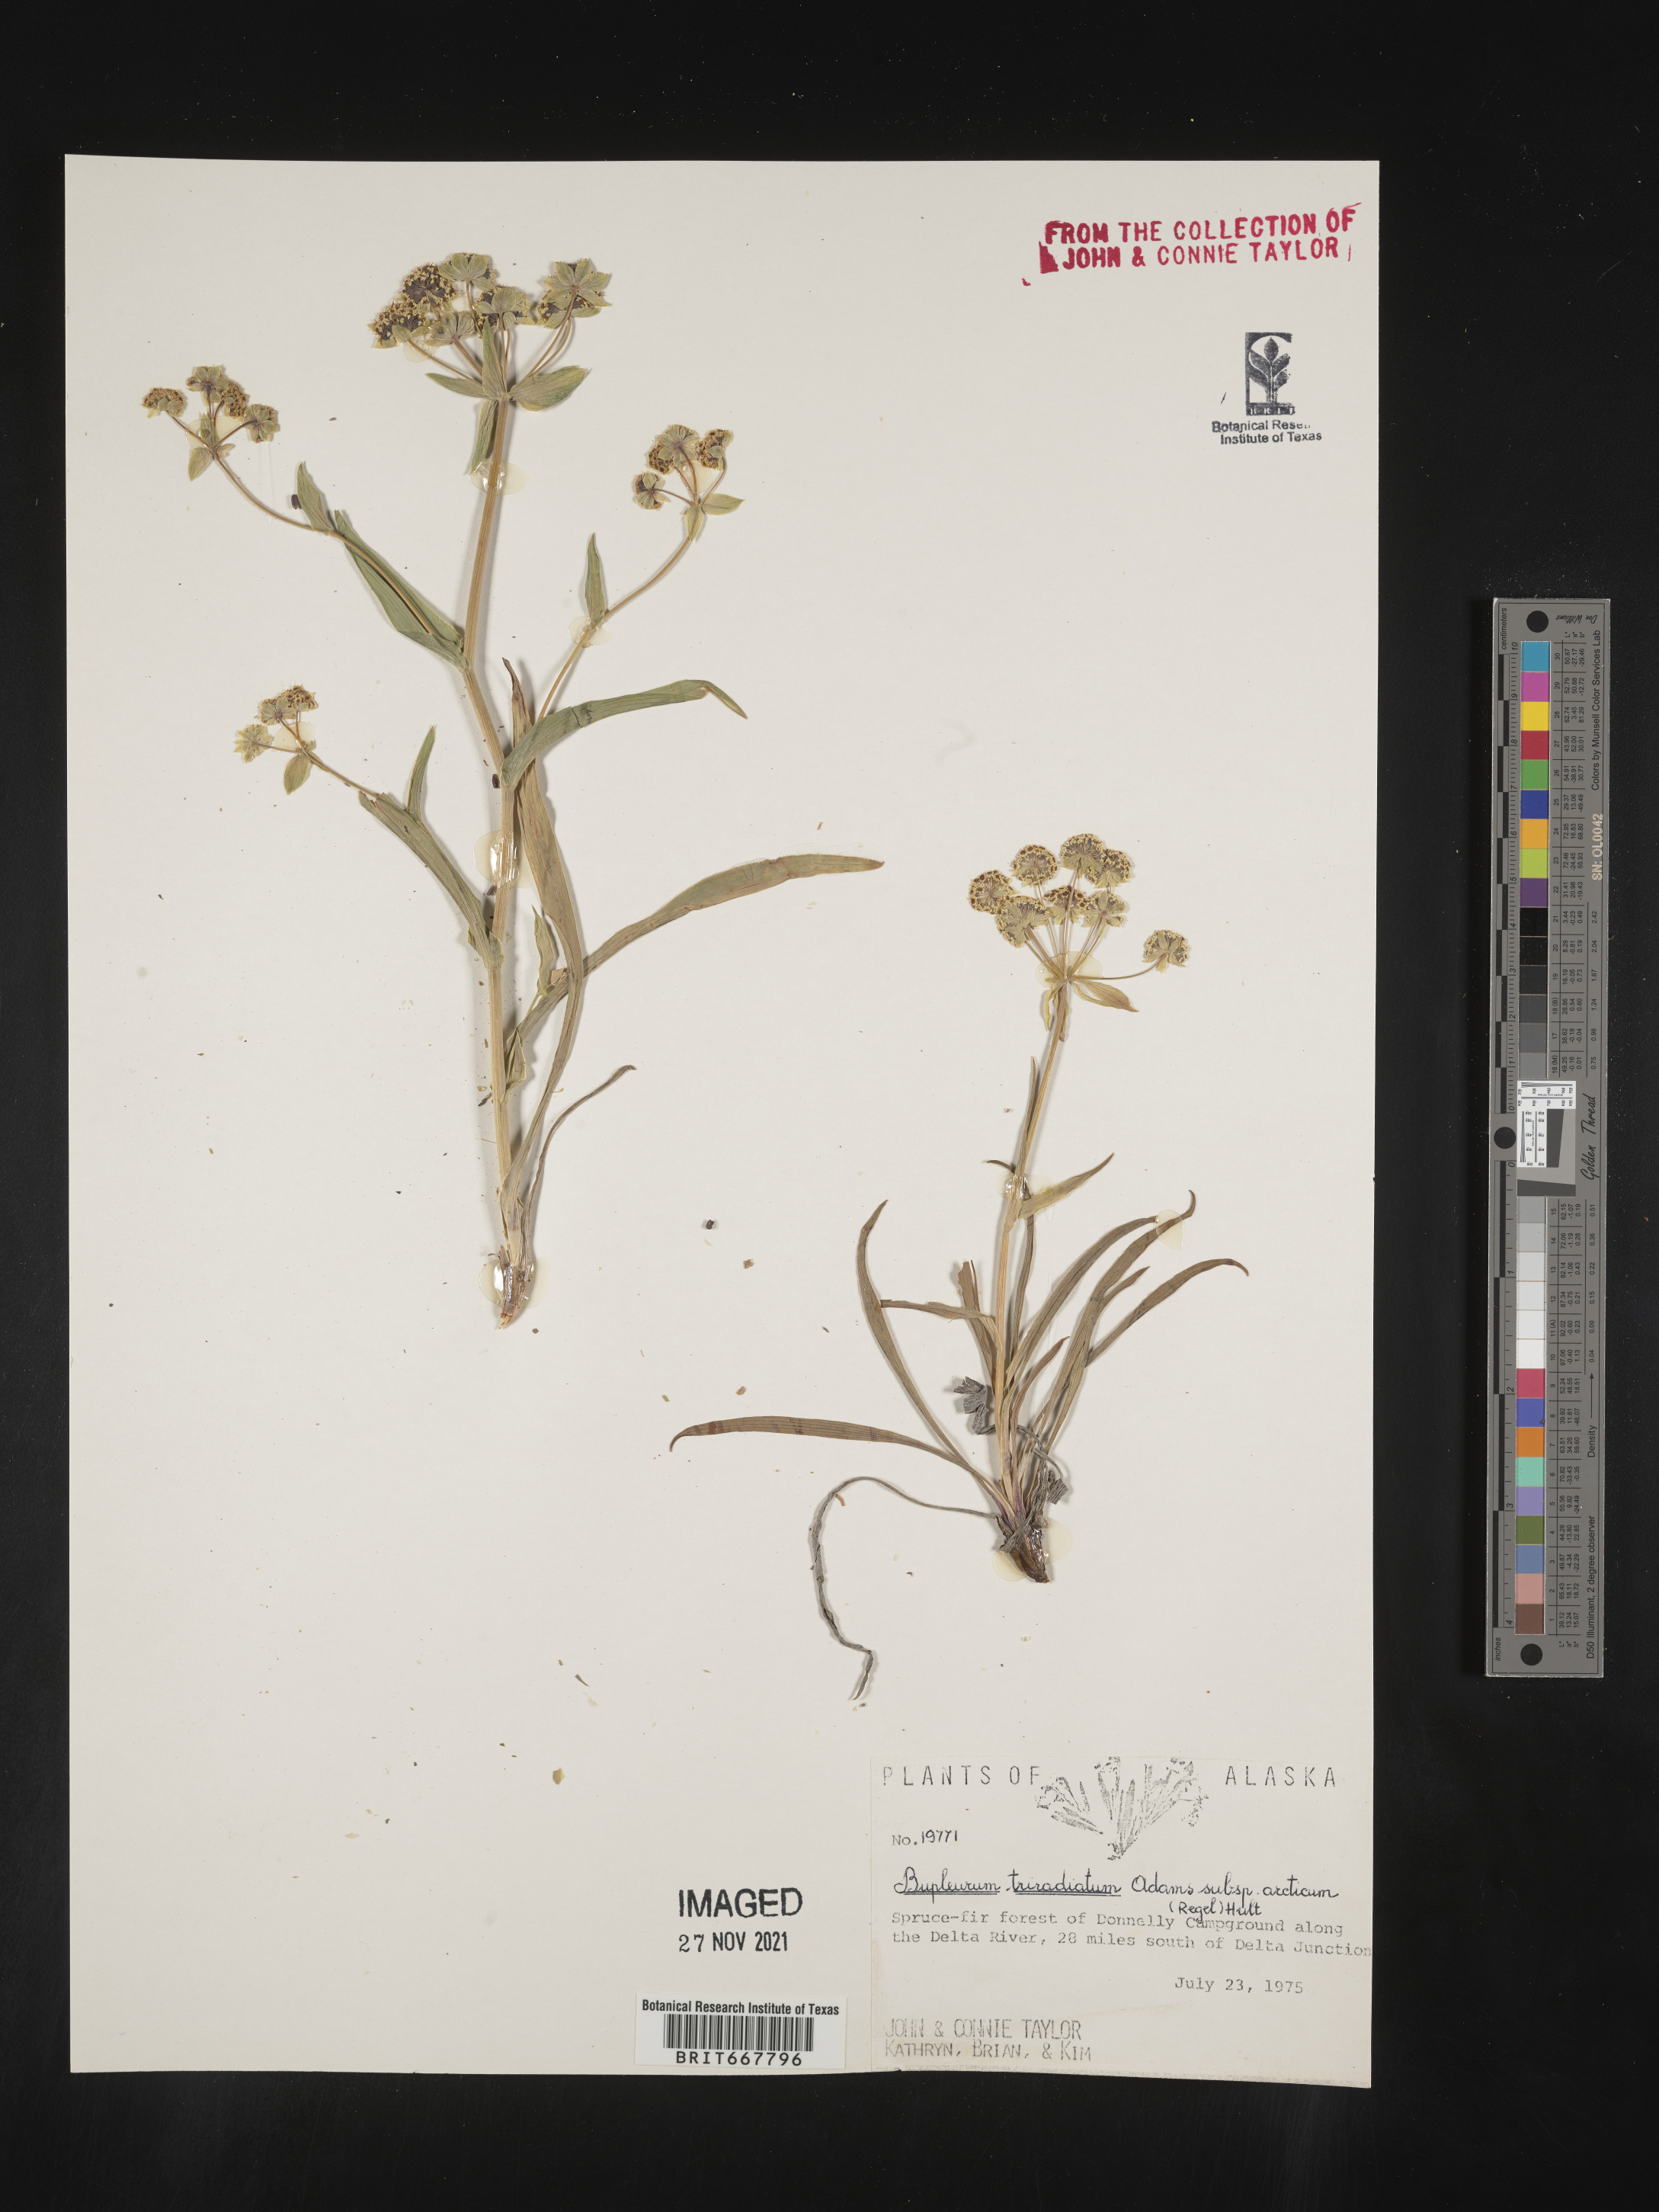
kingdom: Plantae
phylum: Tracheophyta
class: Magnoliopsida
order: Apiales
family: Apiaceae
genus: Bupleurum
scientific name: Bupleurum
